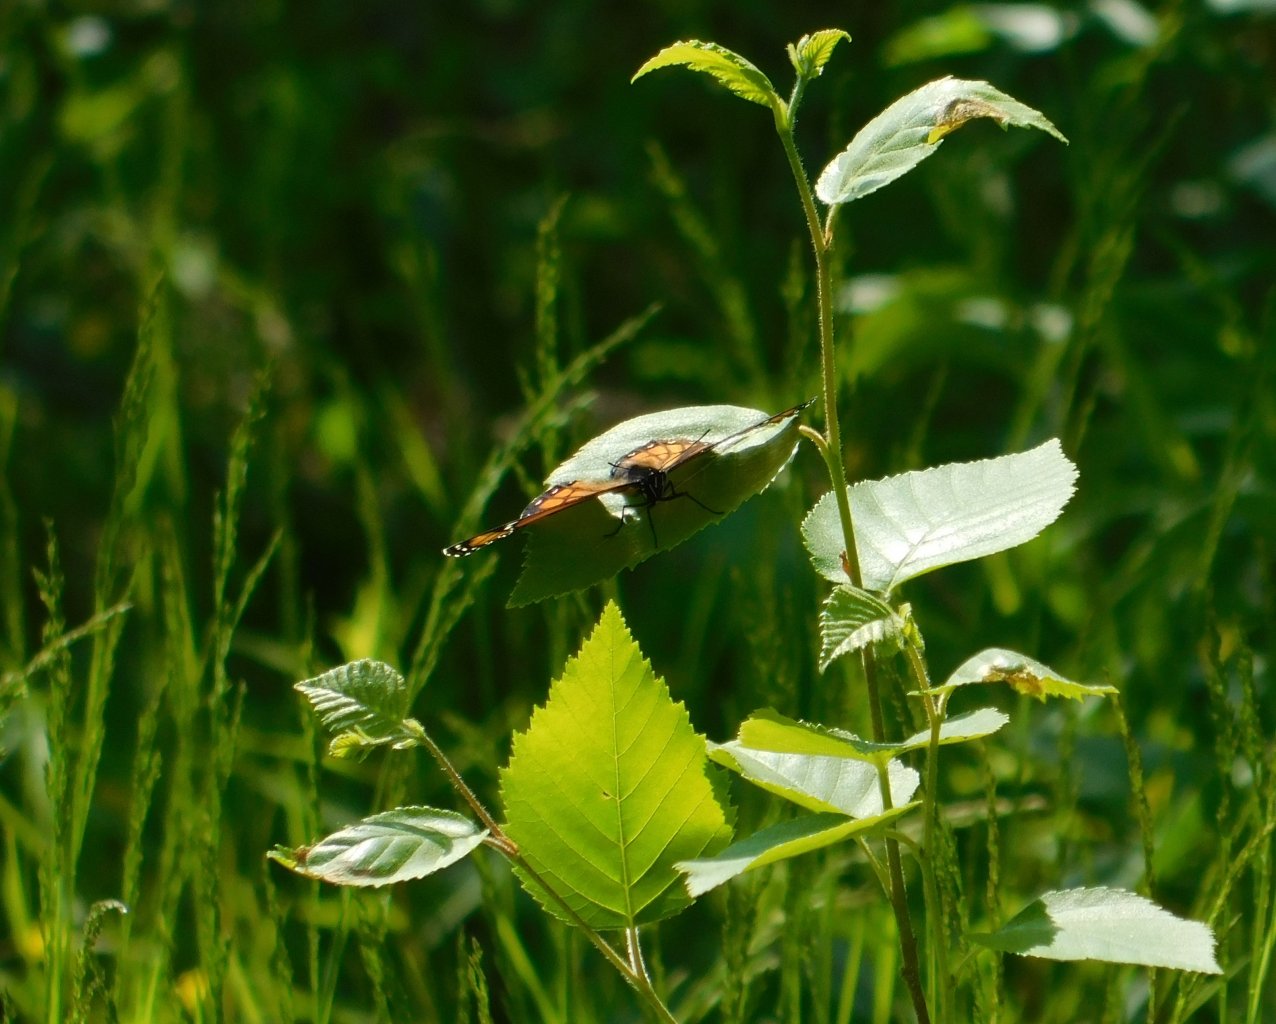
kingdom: Animalia
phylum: Arthropoda
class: Insecta
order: Lepidoptera
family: Nymphalidae
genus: Limenitis
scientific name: Limenitis archippus
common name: Viceroy
